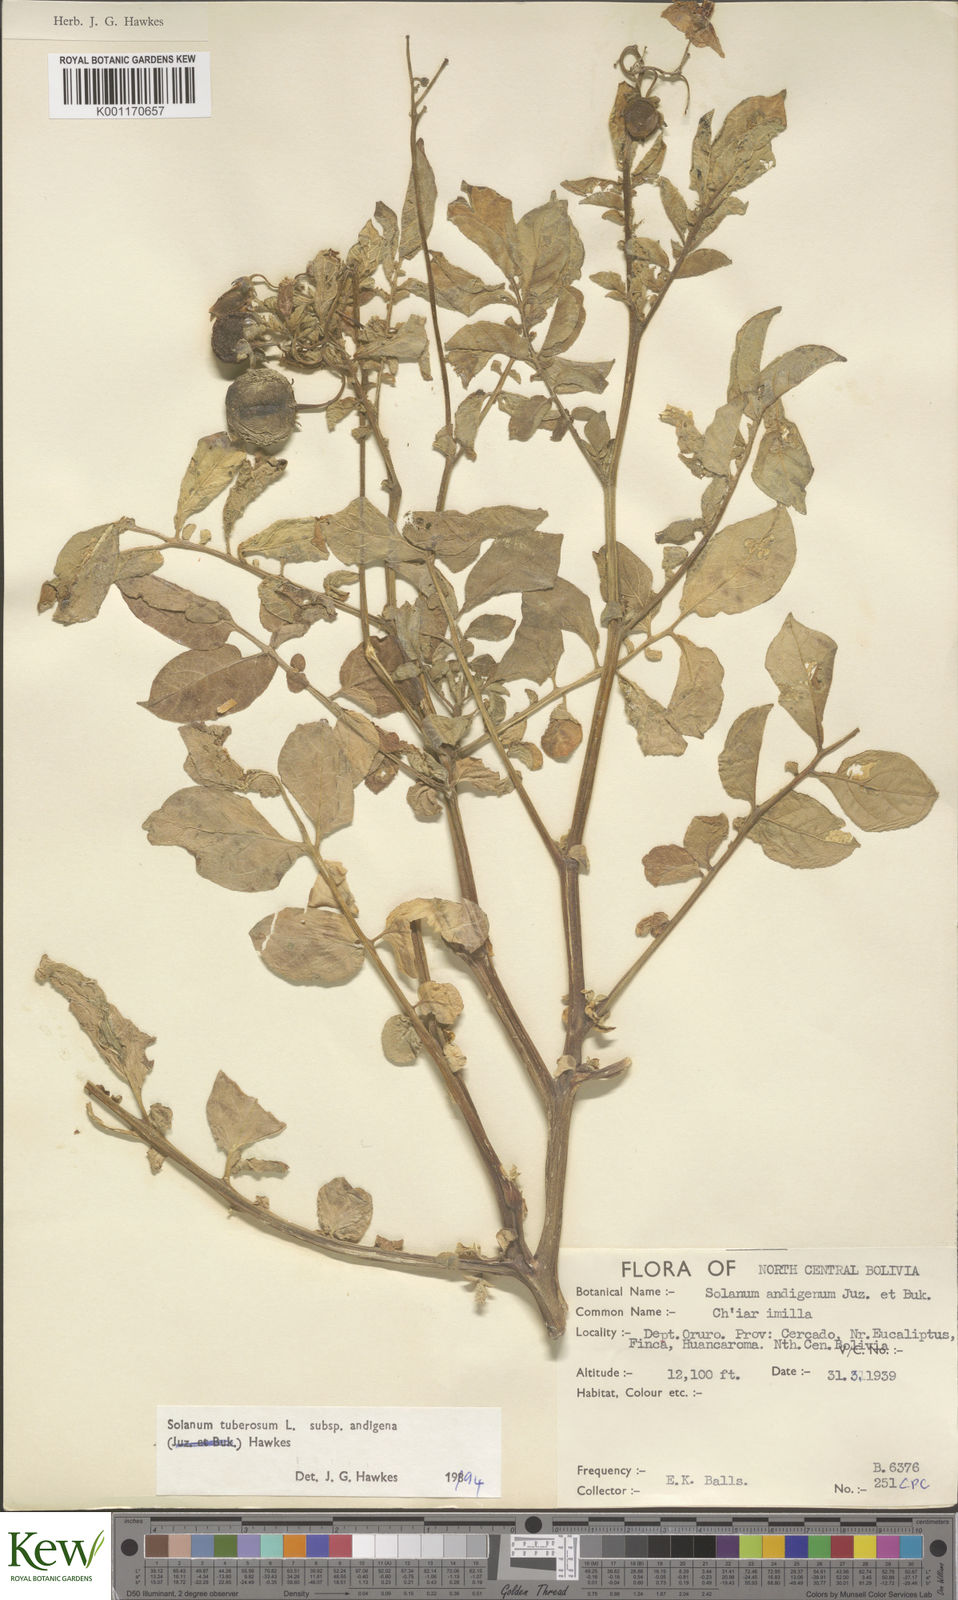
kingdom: Plantae
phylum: Tracheophyta
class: Magnoliopsida
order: Solanales
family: Solanaceae
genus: Solanum
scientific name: Solanum tuberosum
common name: Potato
